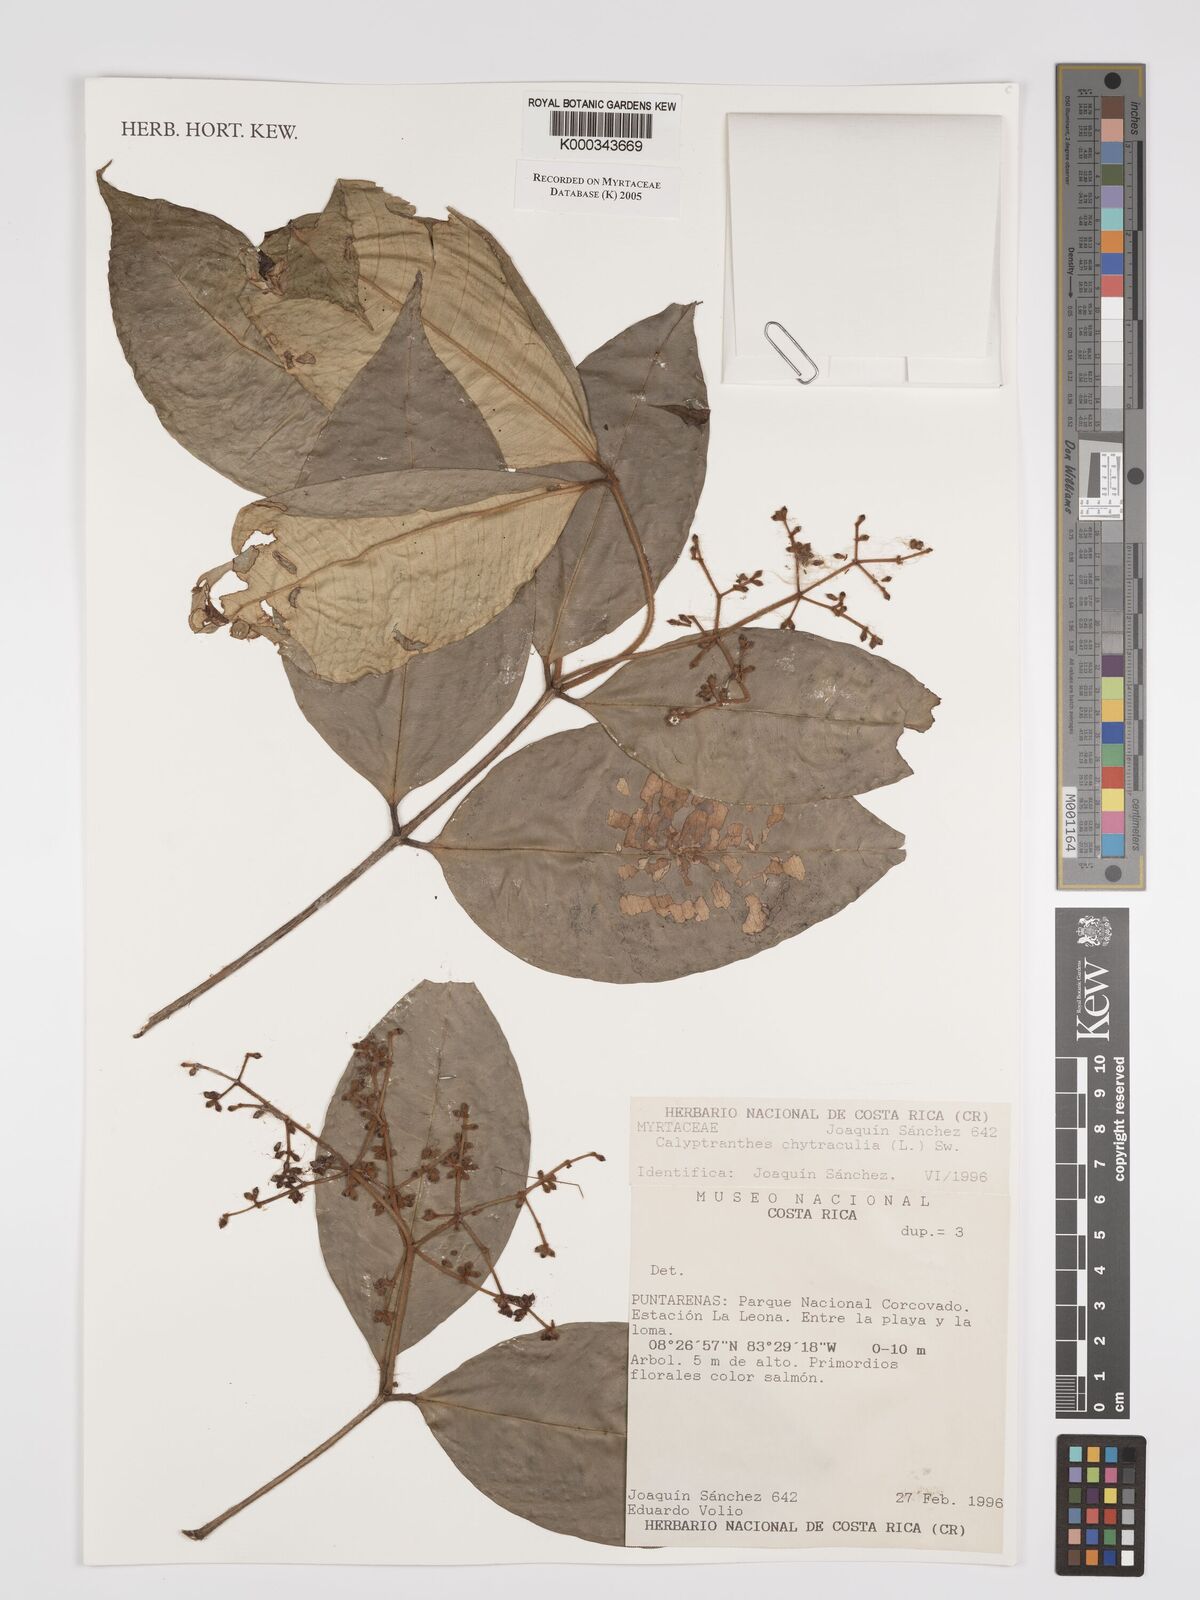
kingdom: Plantae
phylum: Tracheophyta
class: Magnoliopsida
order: Myrtales
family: Myrtaceae
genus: Myrcia
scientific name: Myrcia chytraculia
